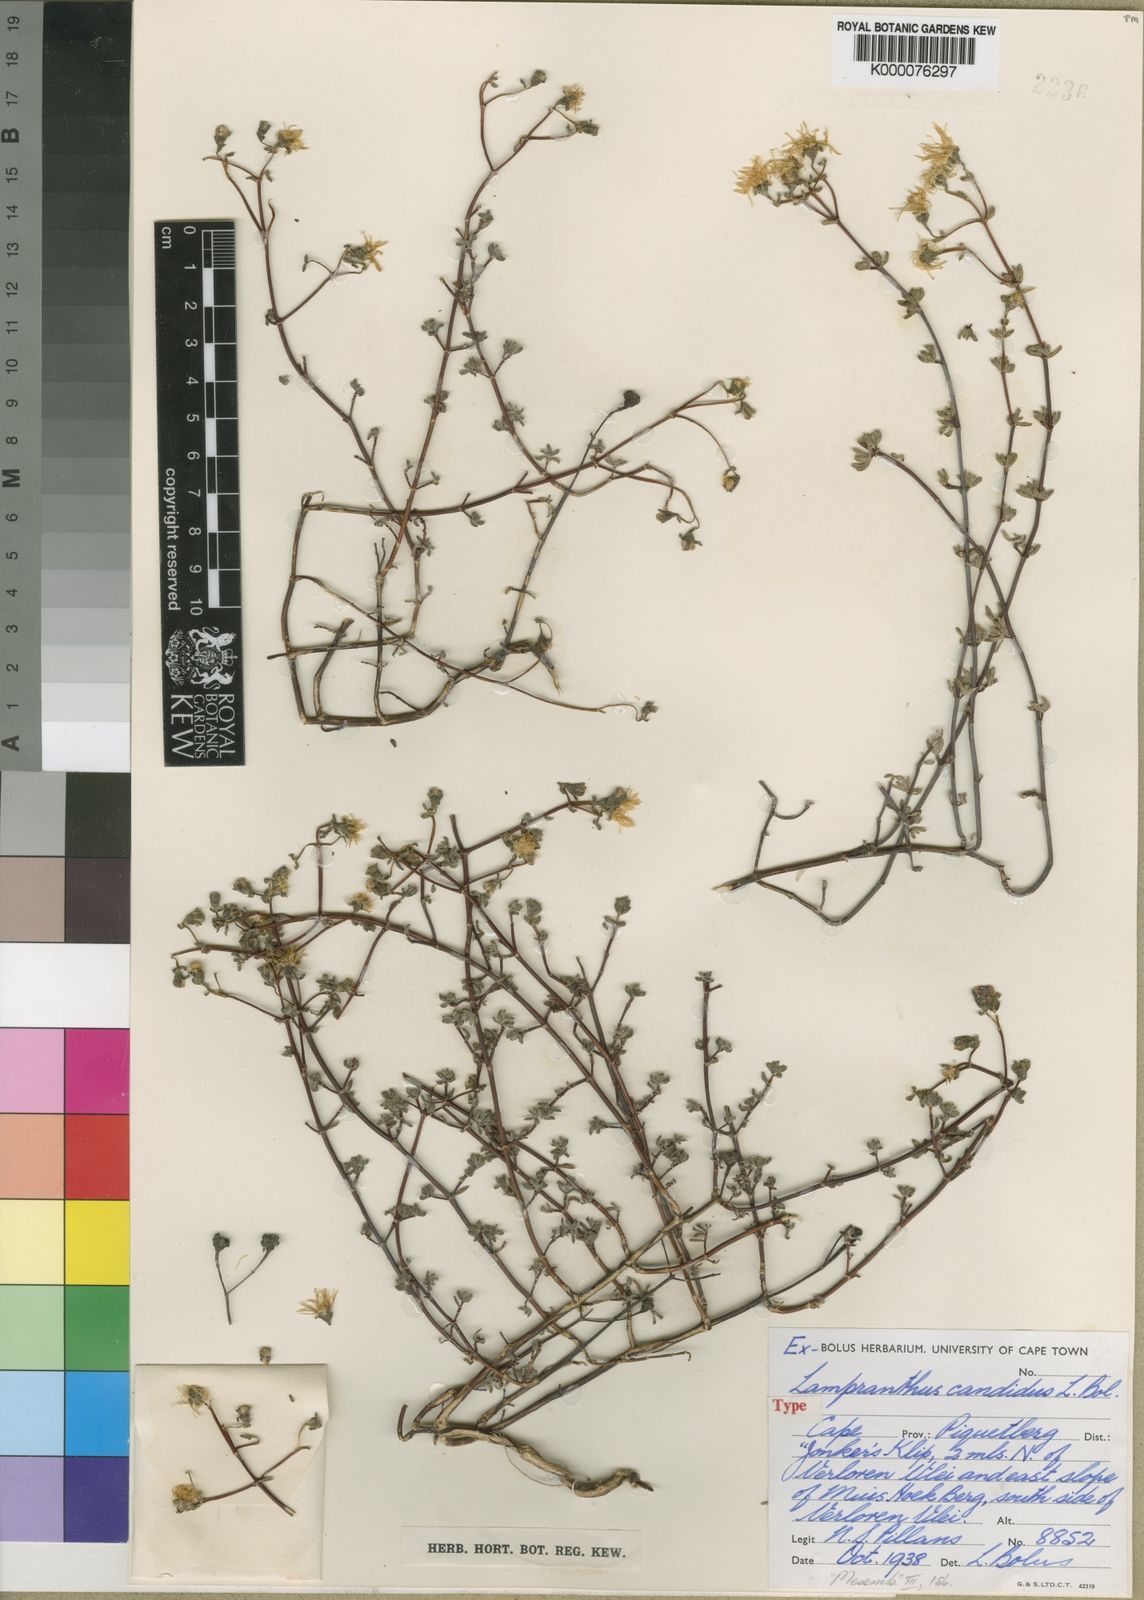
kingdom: Plantae
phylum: Tracheophyta
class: Magnoliopsida
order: Caryophyllales
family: Aizoaceae
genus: Lampranthus
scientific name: Lampranthus candidus
